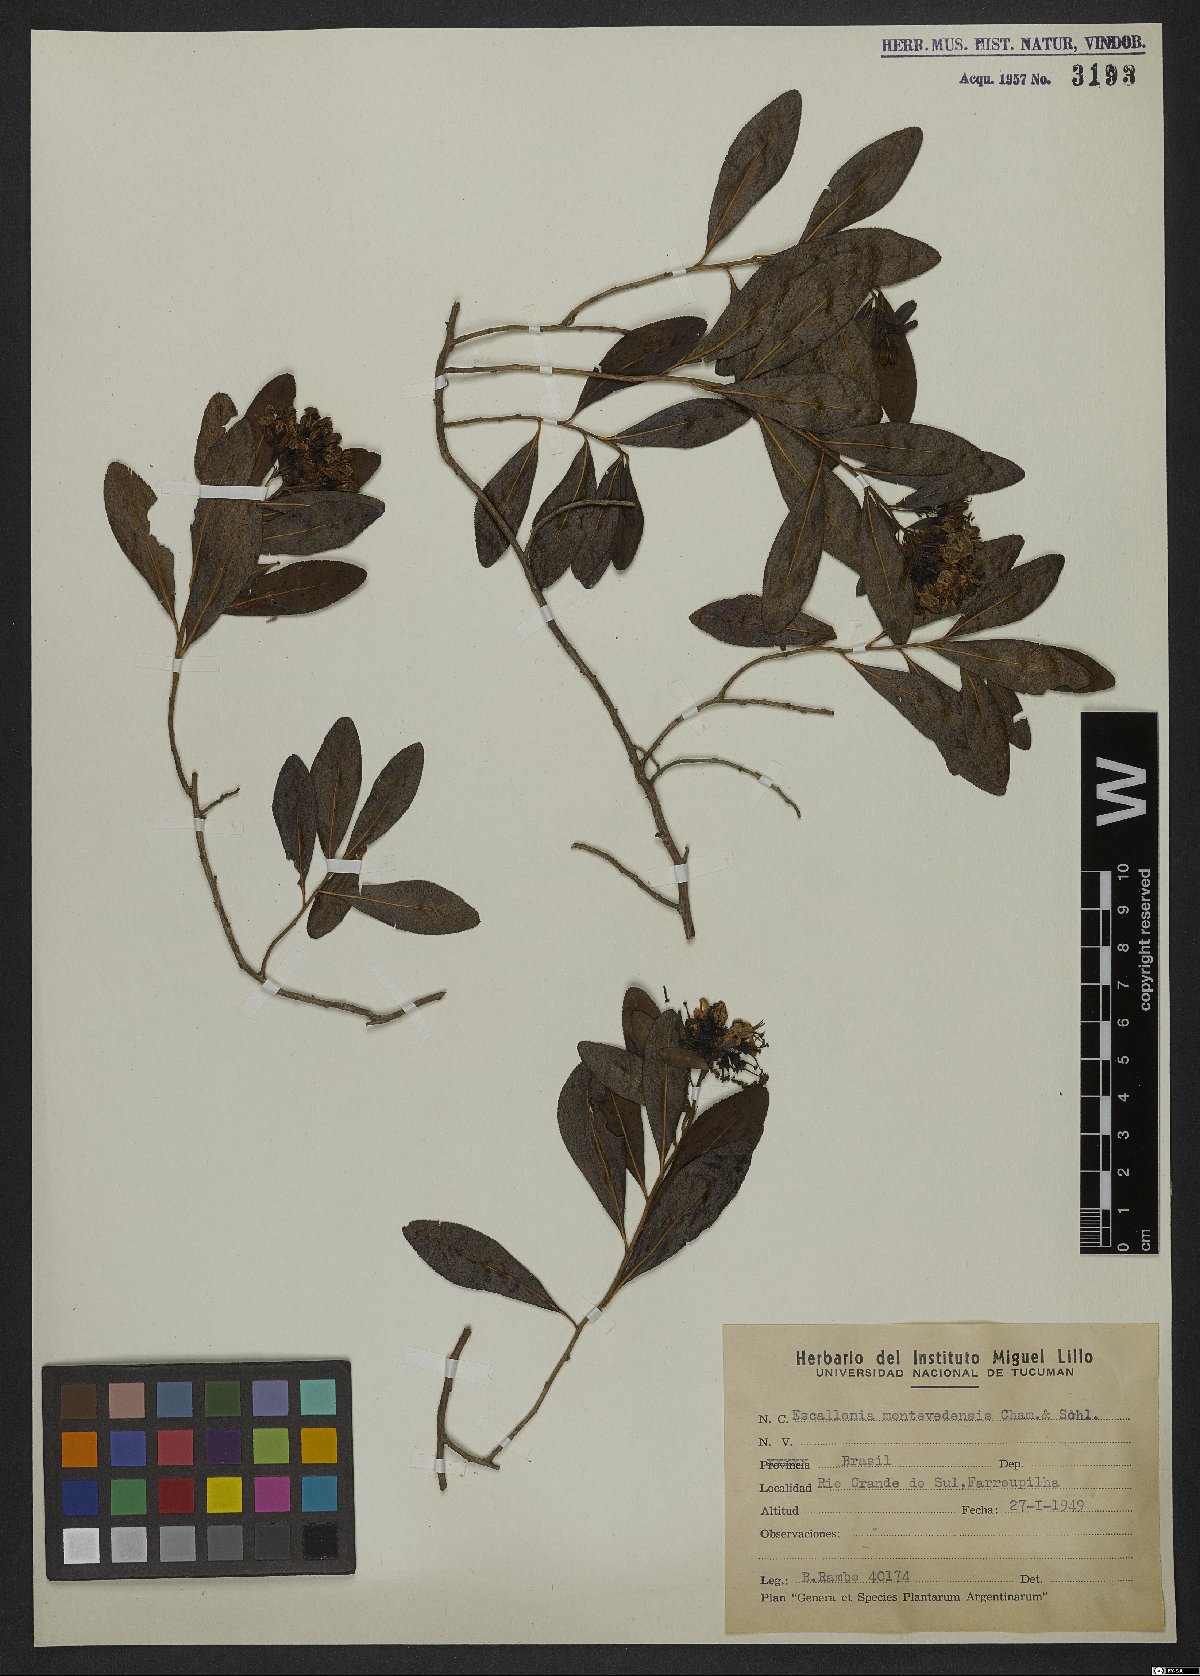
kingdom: Plantae
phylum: Tracheophyta
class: Magnoliopsida
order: Escalloniales
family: Escalloniaceae
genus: Escallonia
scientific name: Escallonia bifida
